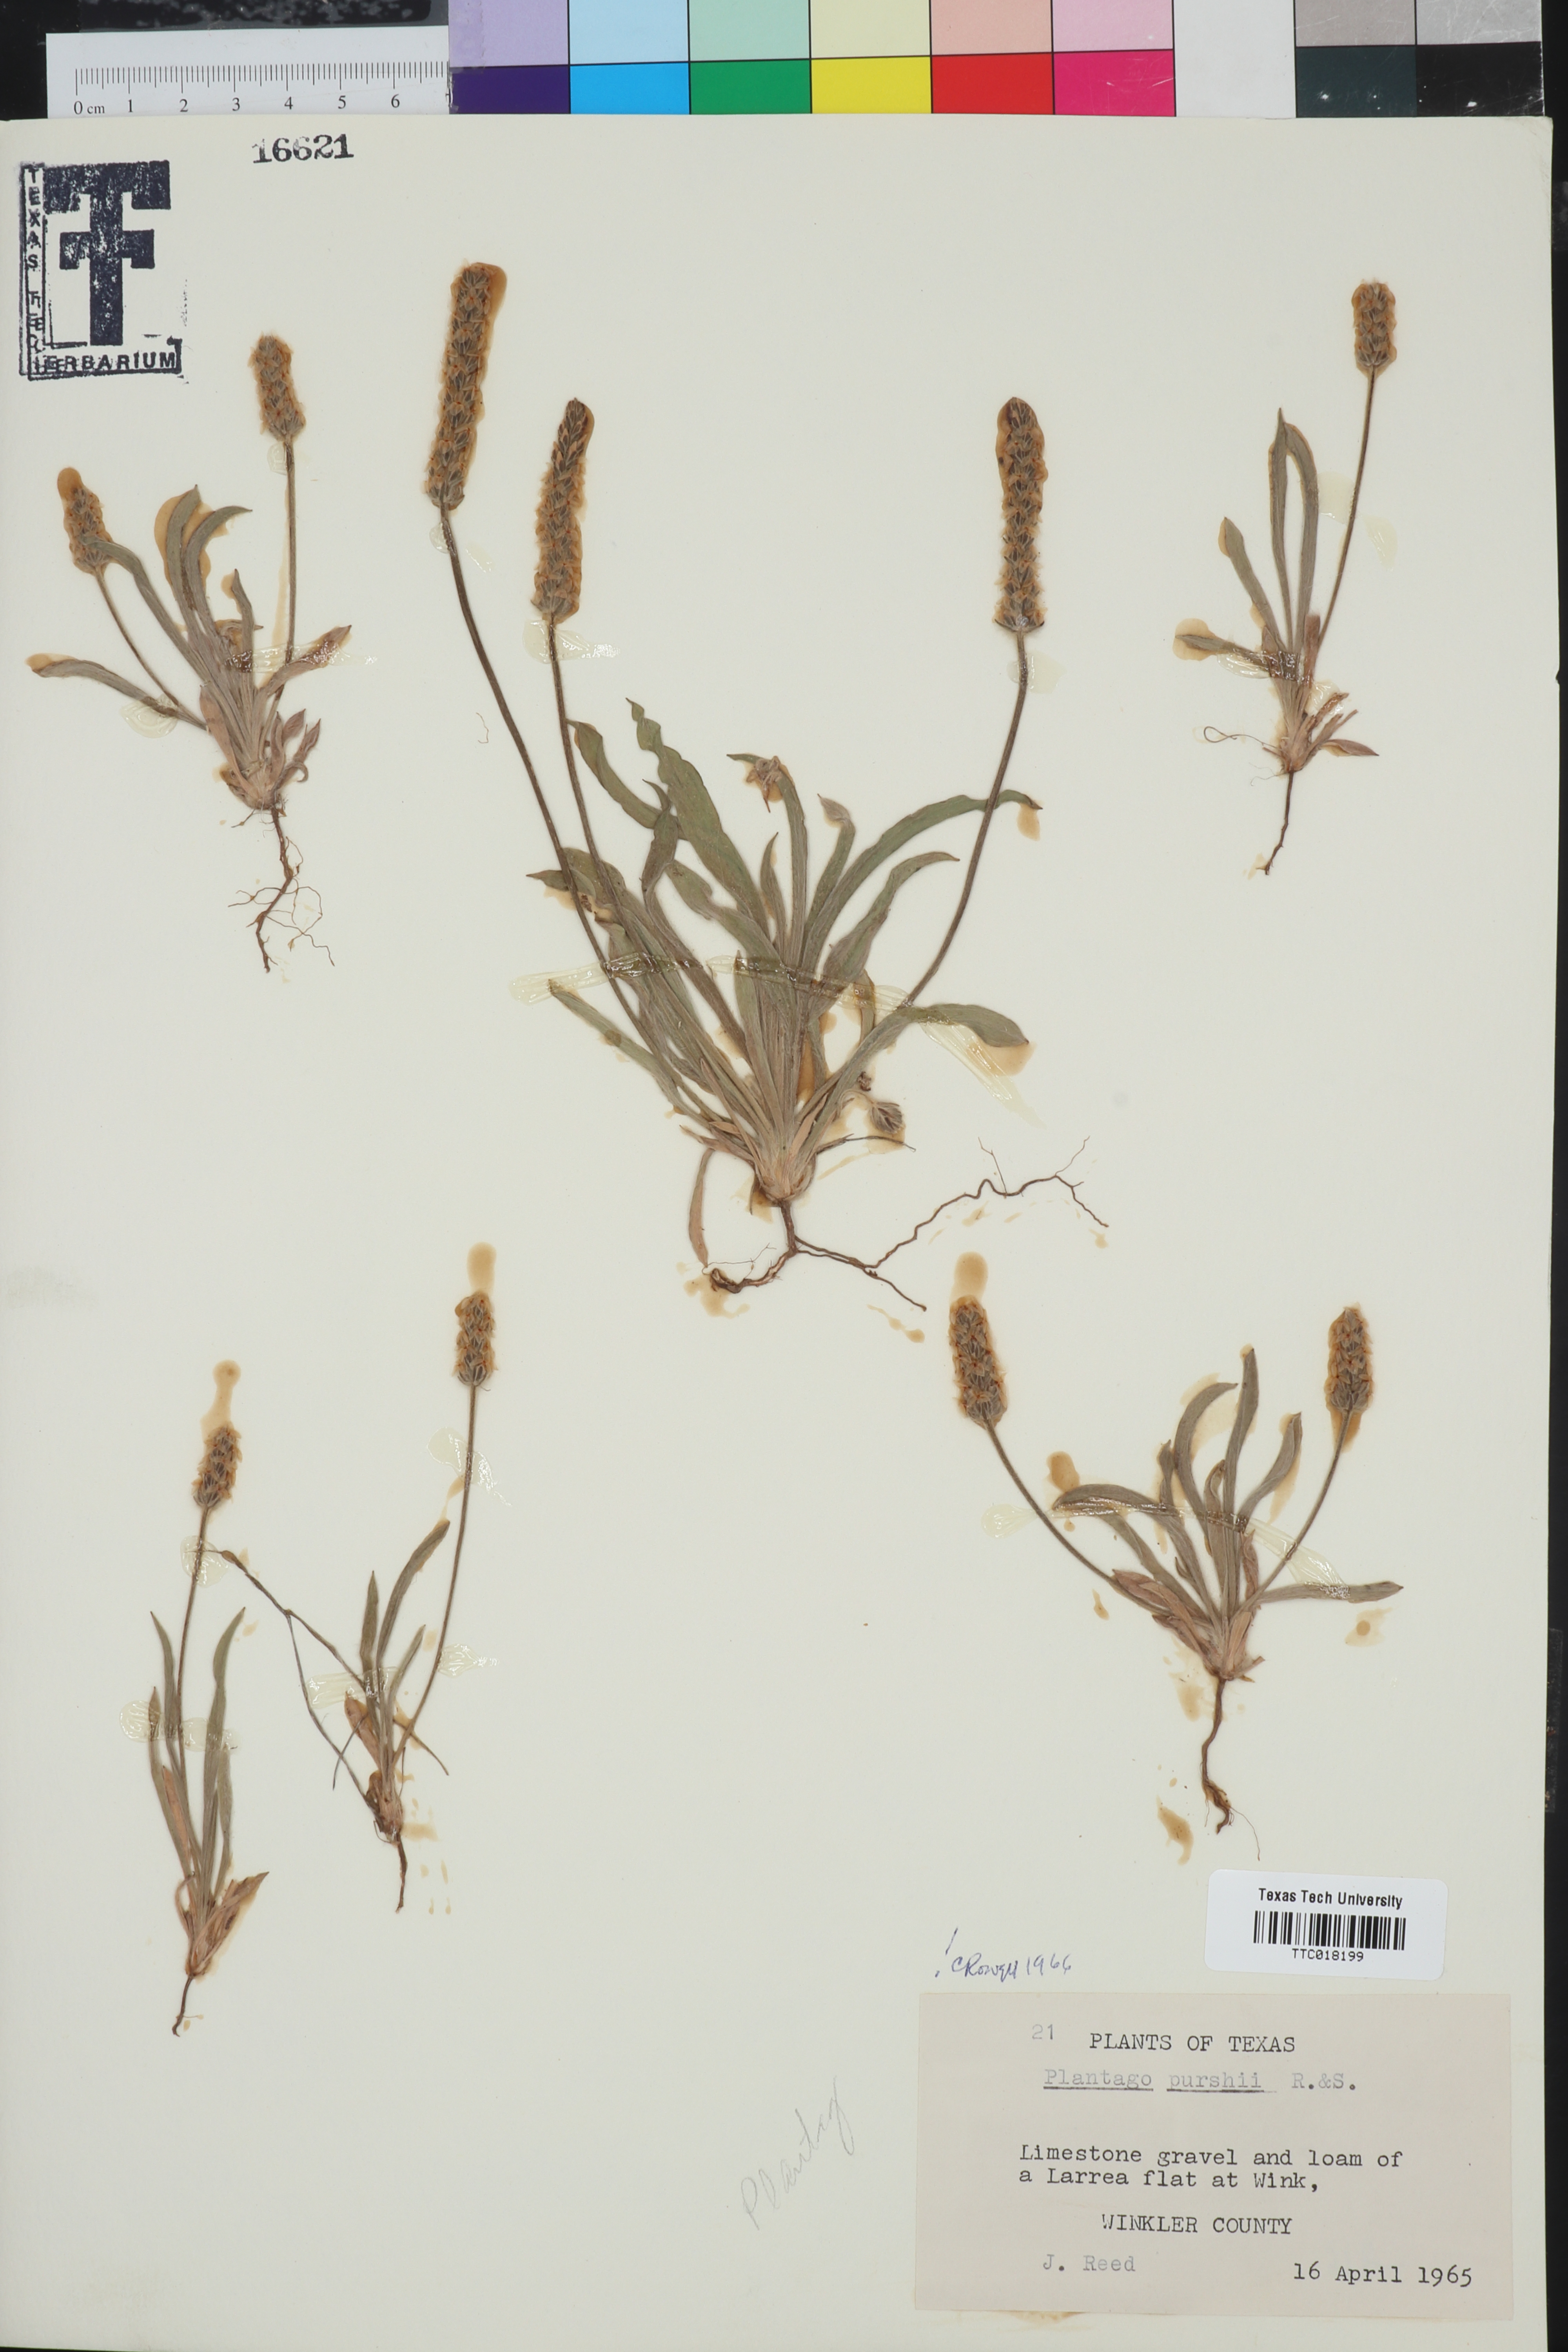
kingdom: Plantae
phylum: Tracheophyta
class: Magnoliopsida
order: Lamiales
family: Plantaginaceae
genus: Plantago
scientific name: Plantago patagonica
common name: Patagonia indian-wheat
